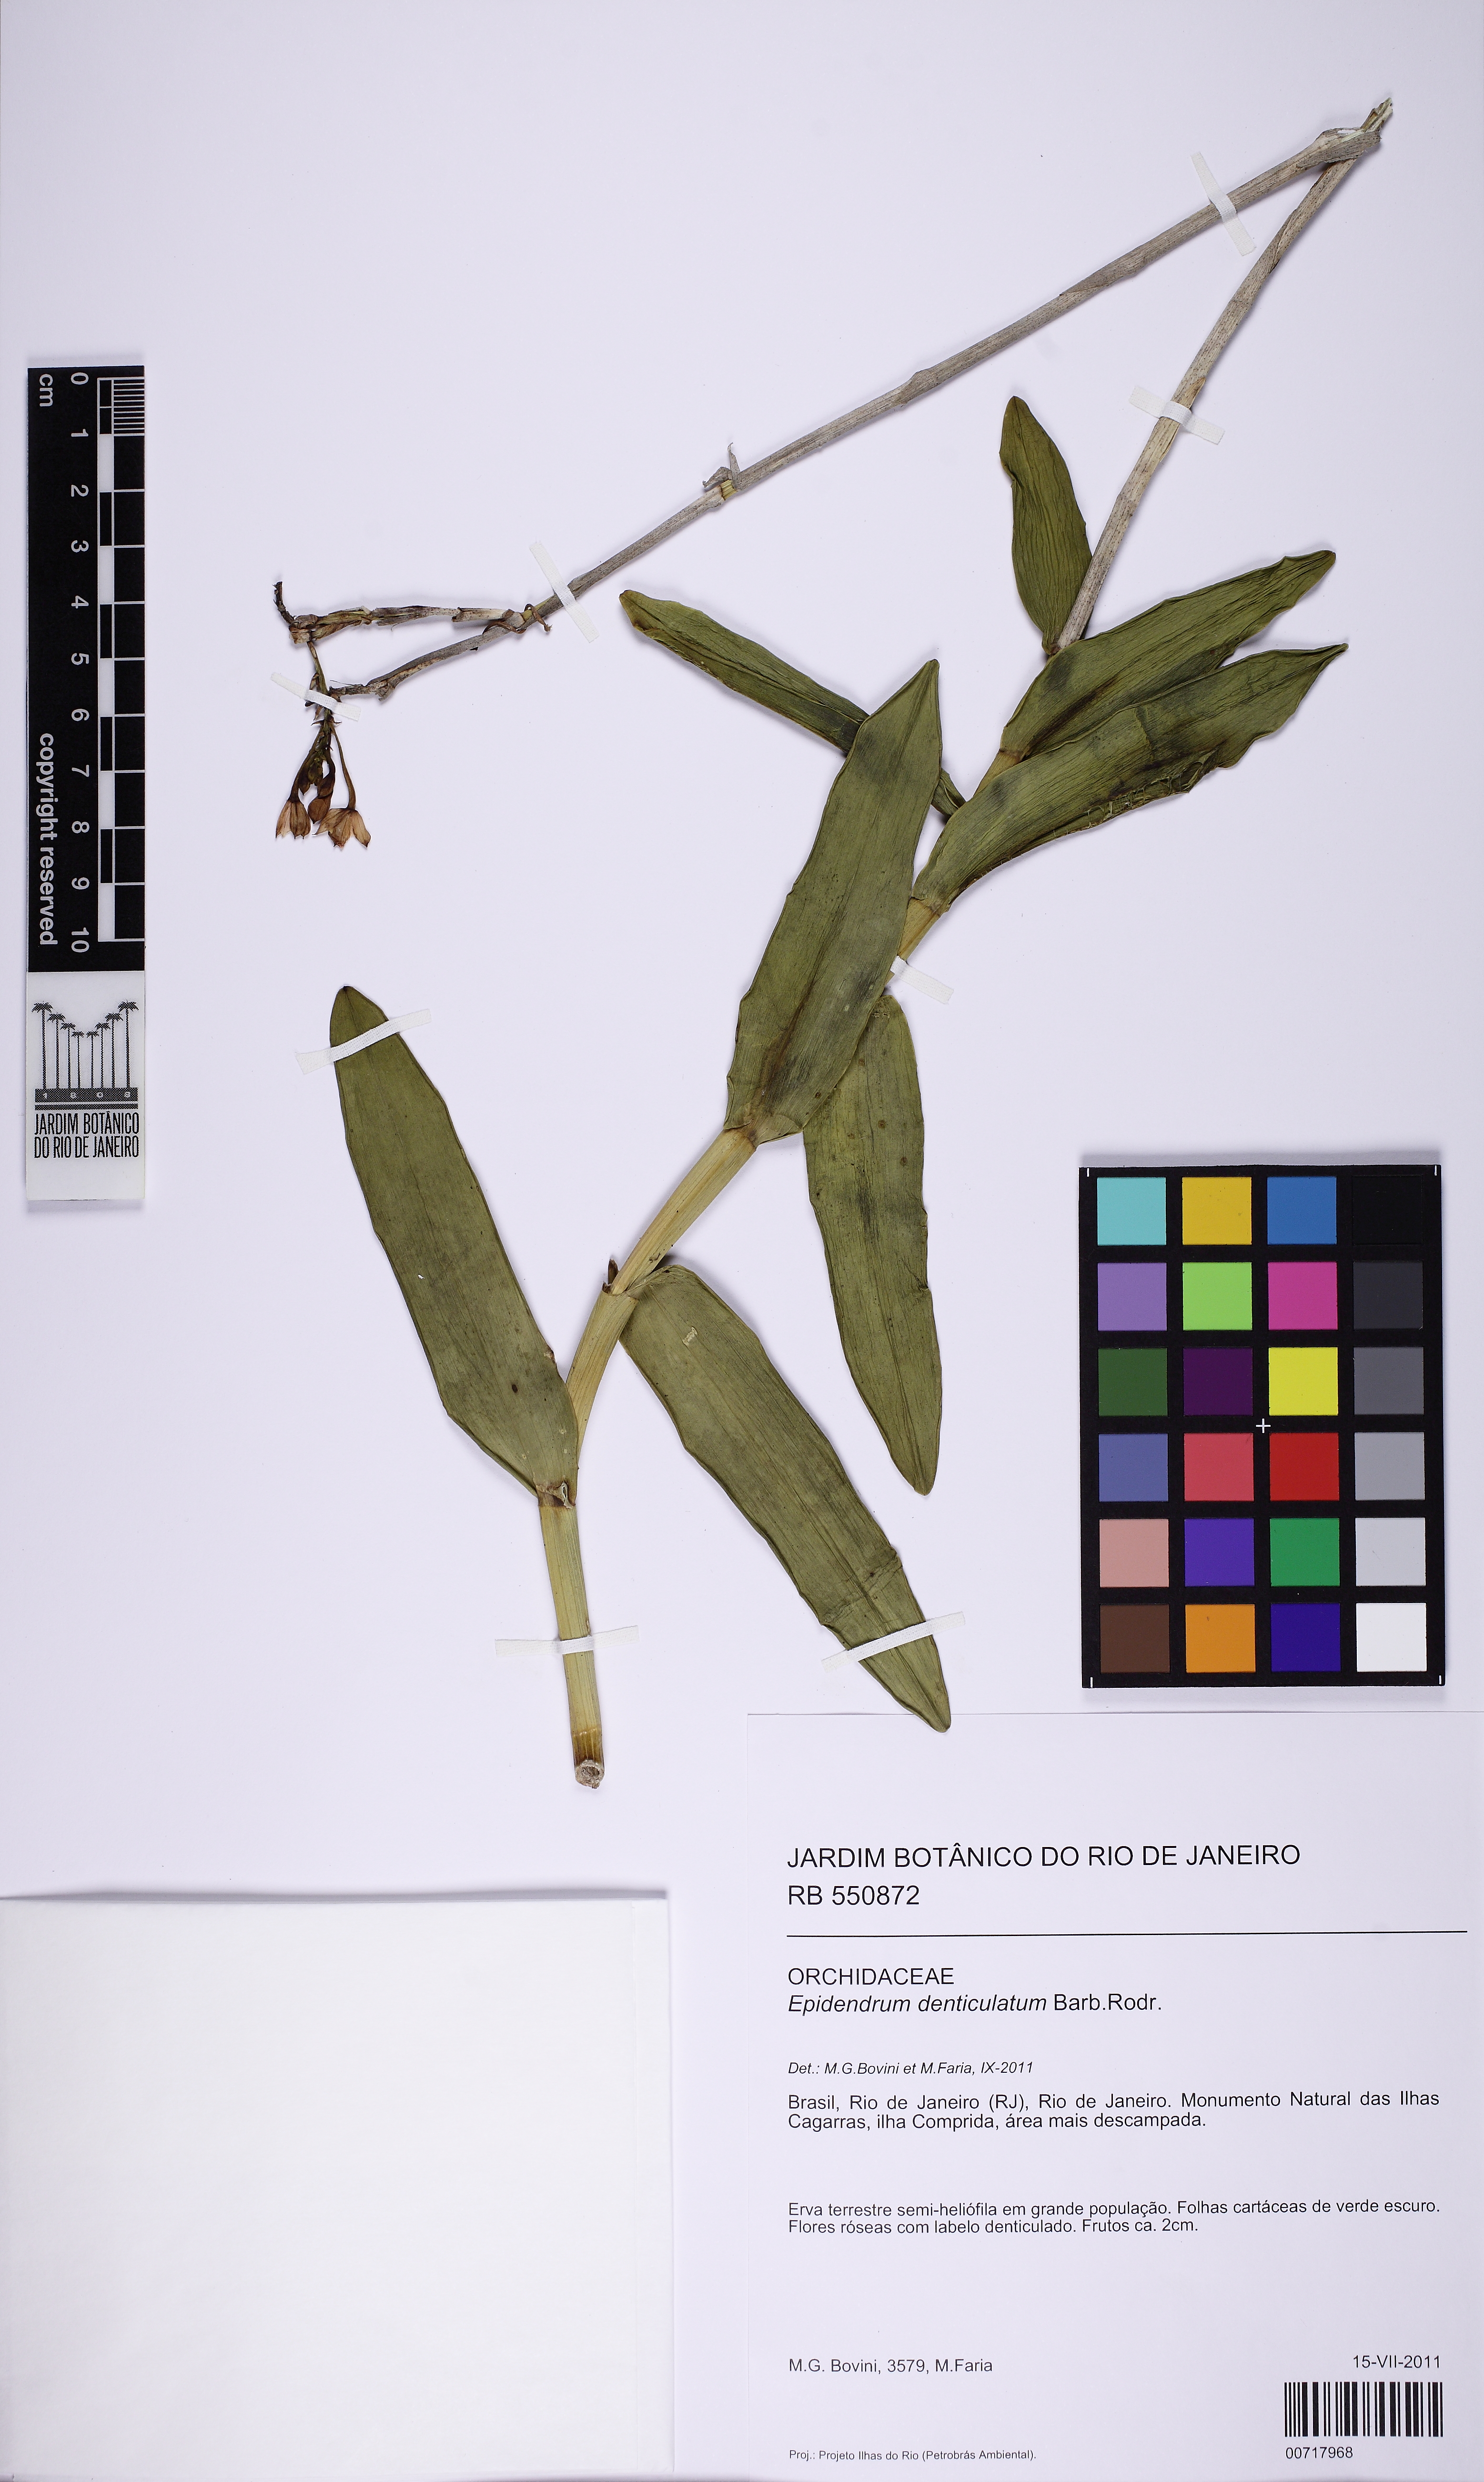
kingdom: Plantae
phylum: Tracheophyta
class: Liliopsida
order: Asparagales
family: Orchidaceae
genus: Epidendrum
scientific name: Epidendrum denticulatum
